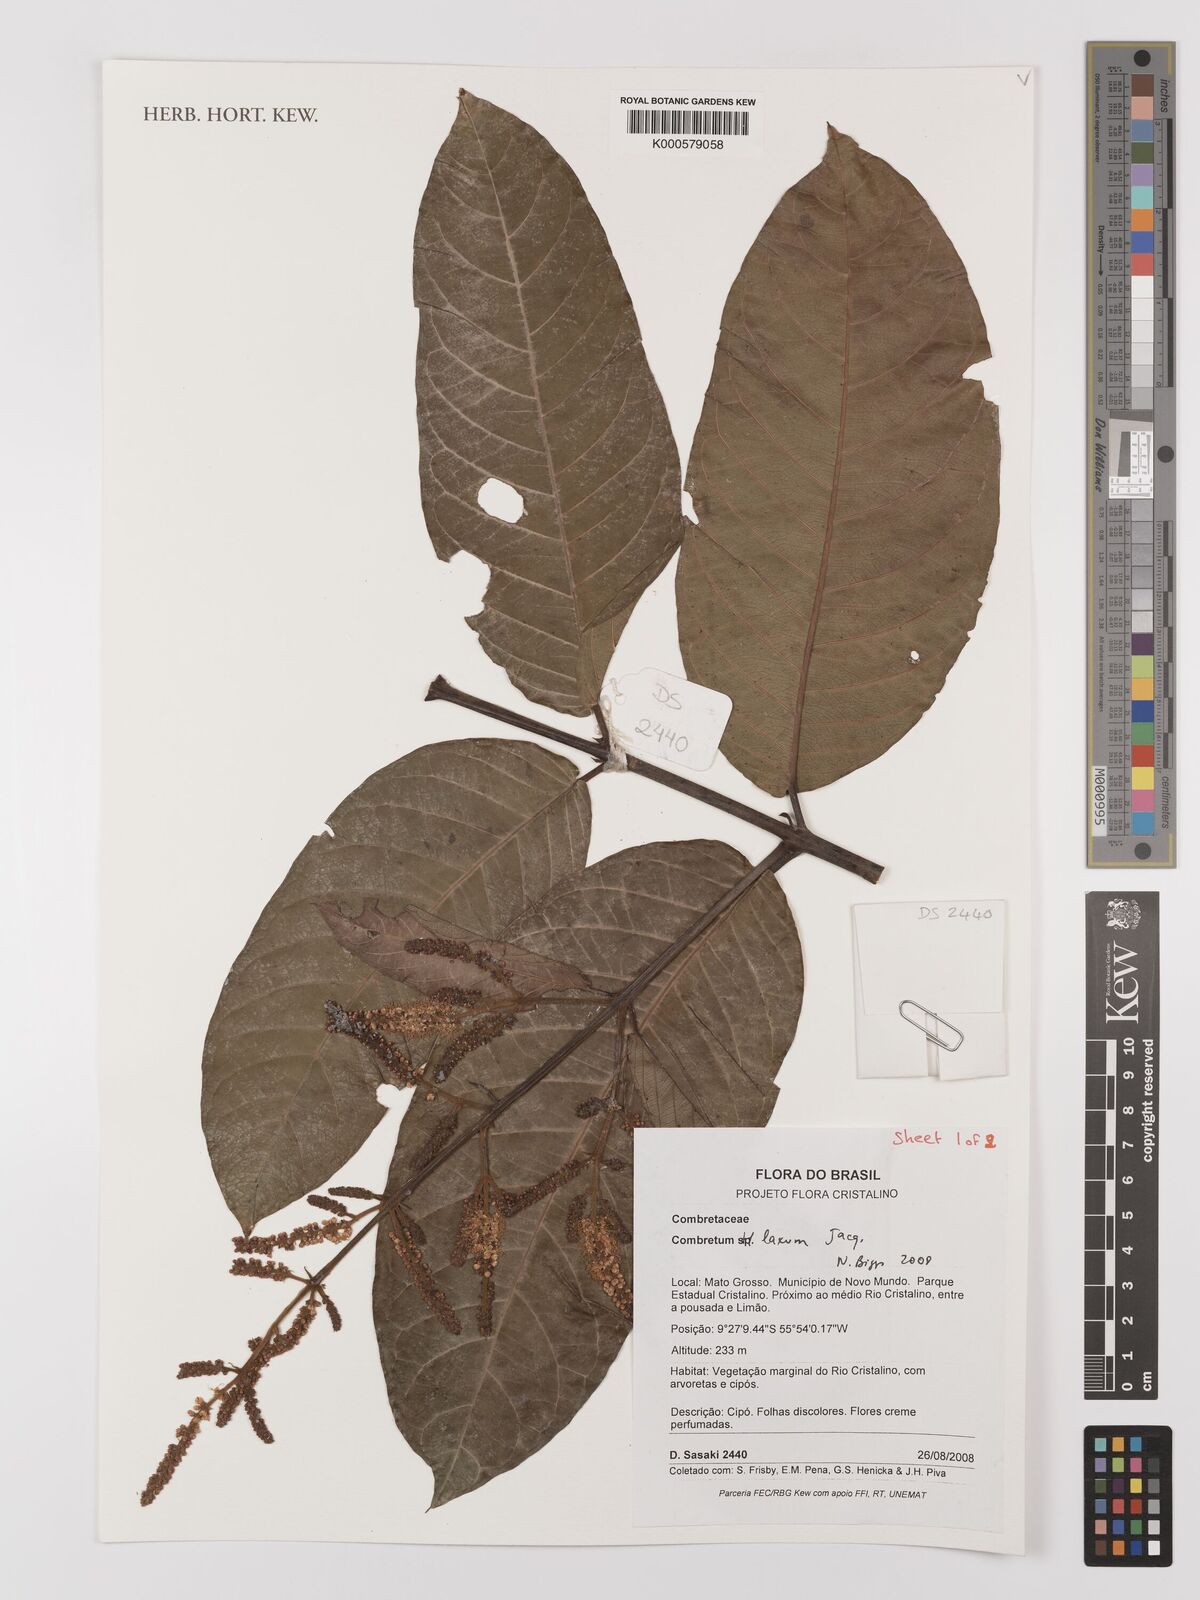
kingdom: Plantae
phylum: Tracheophyta
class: Magnoliopsida
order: Myrtales
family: Combretaceae
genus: Combretum
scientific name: Combretum laxum
